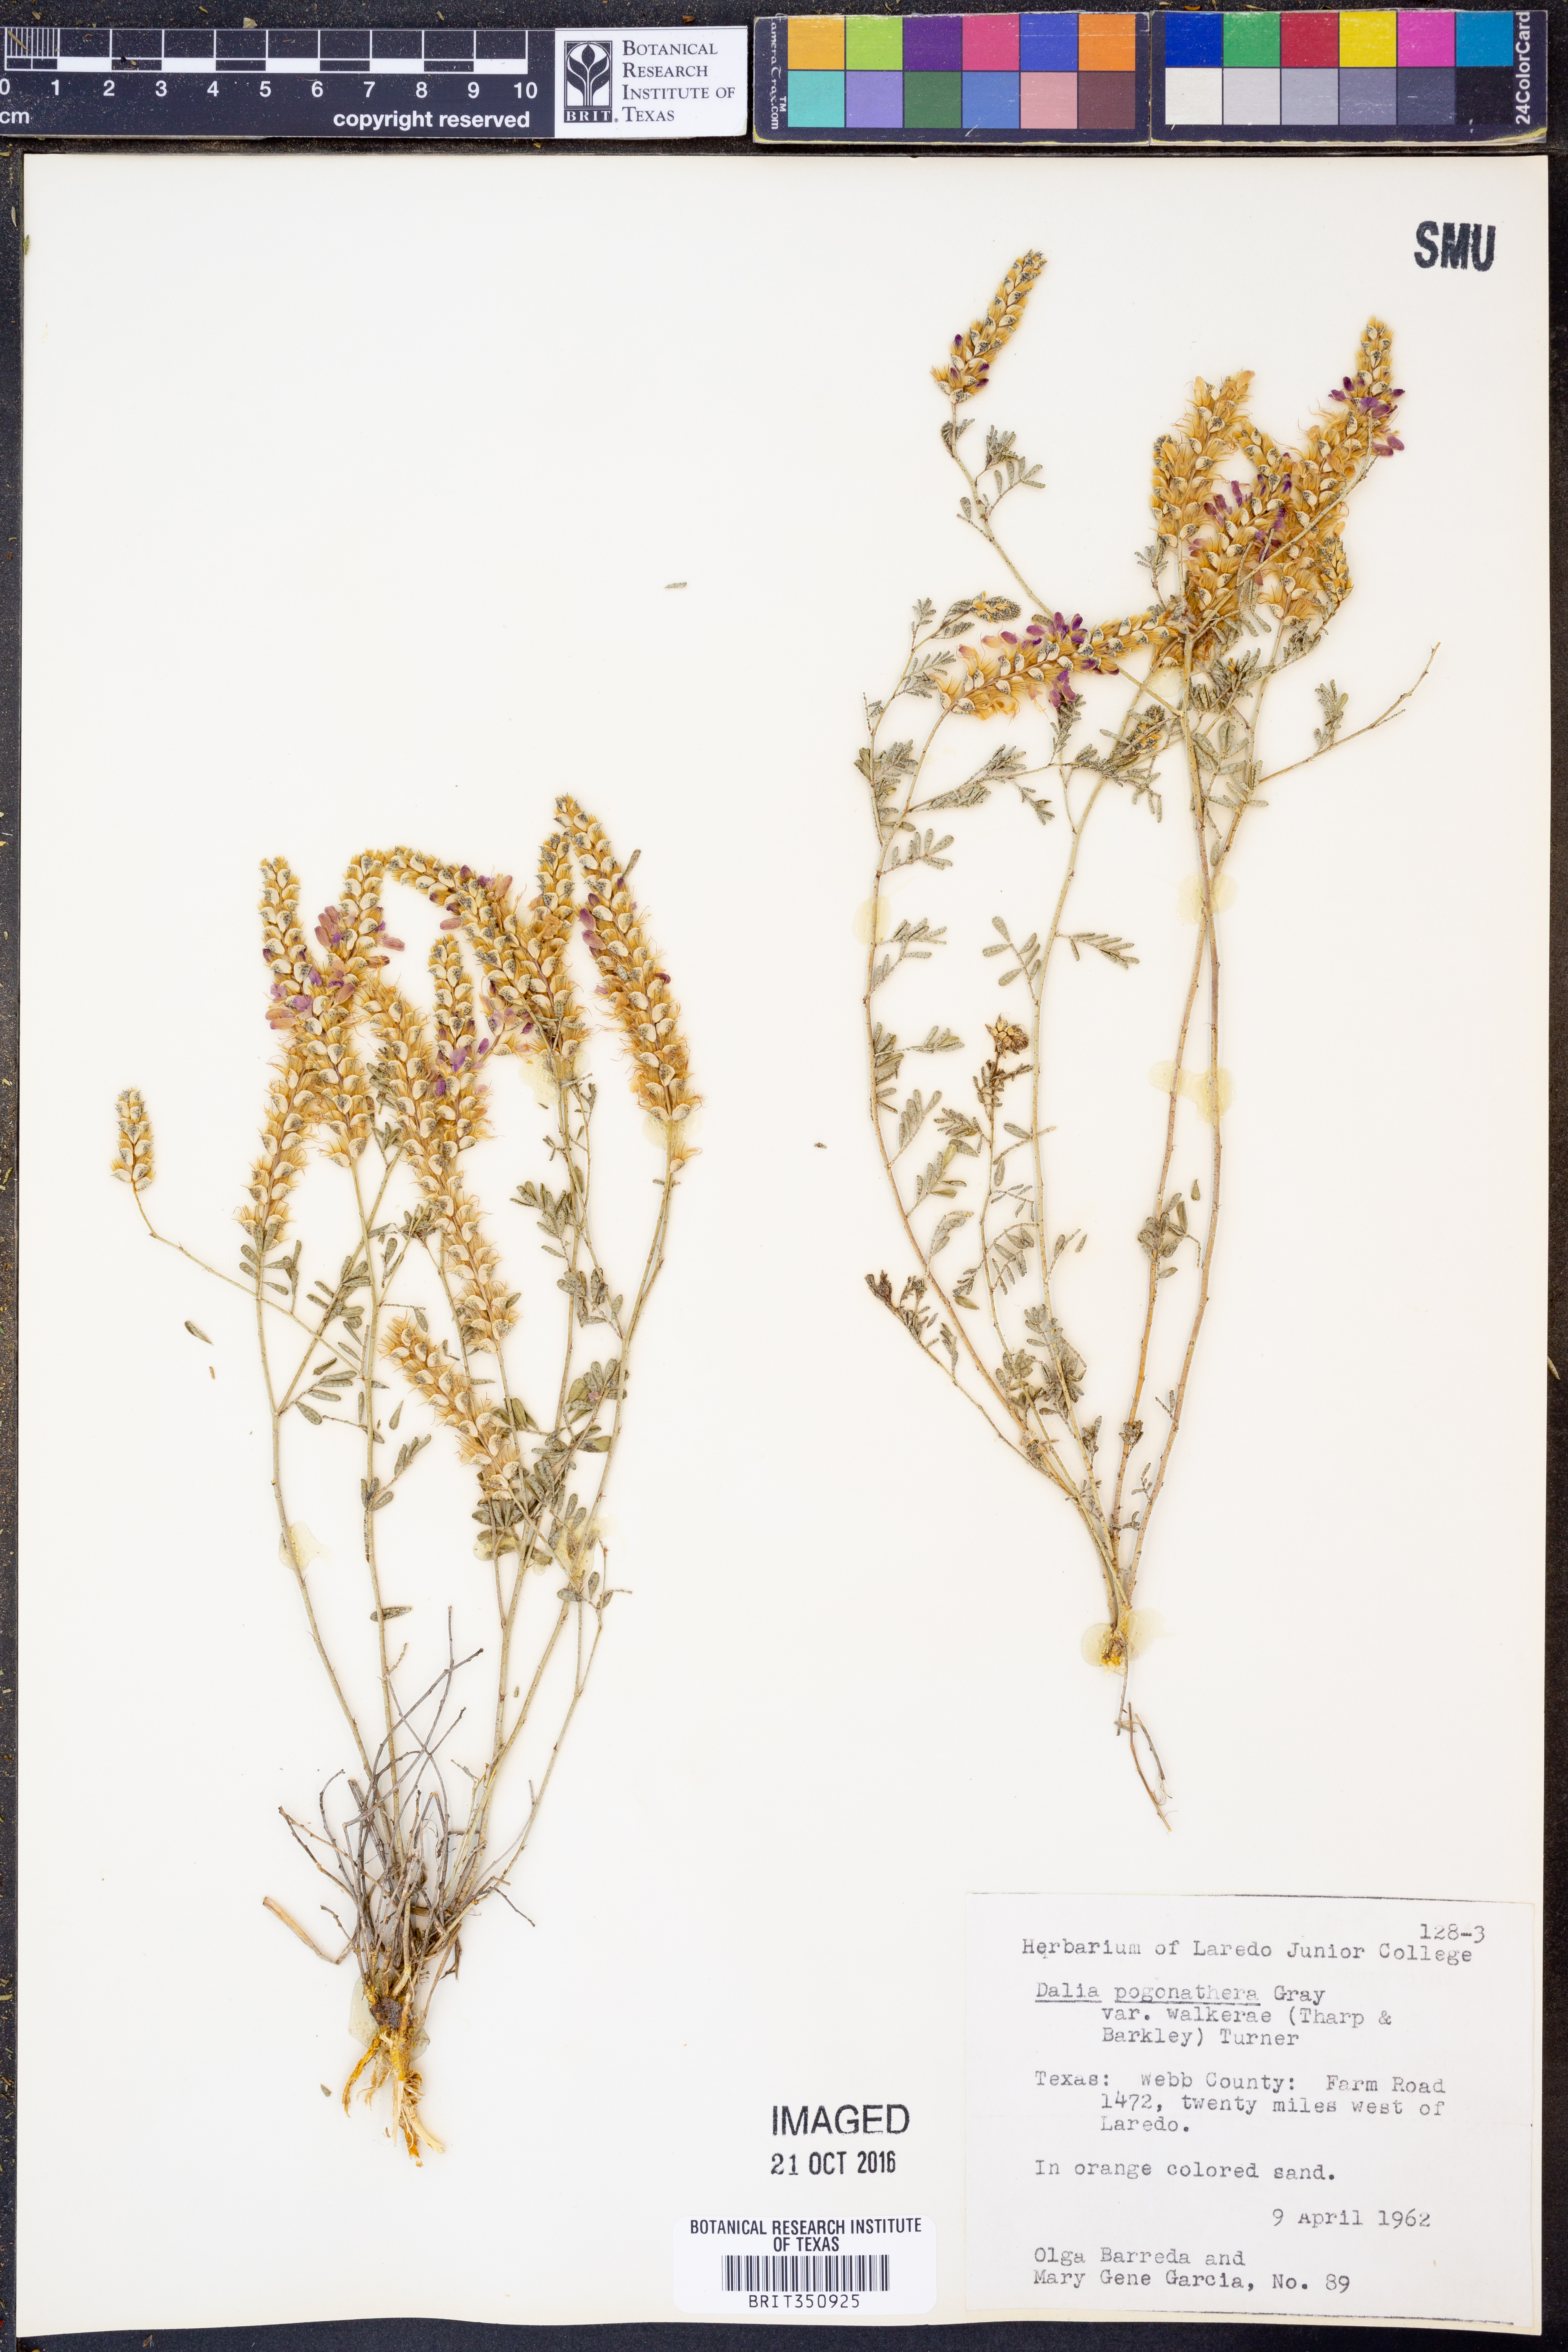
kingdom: Plantae
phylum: Tracheophyta
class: Magnoliopsida
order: Fabales
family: Fabaceae
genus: Dalea
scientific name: Dalea pogonathera
